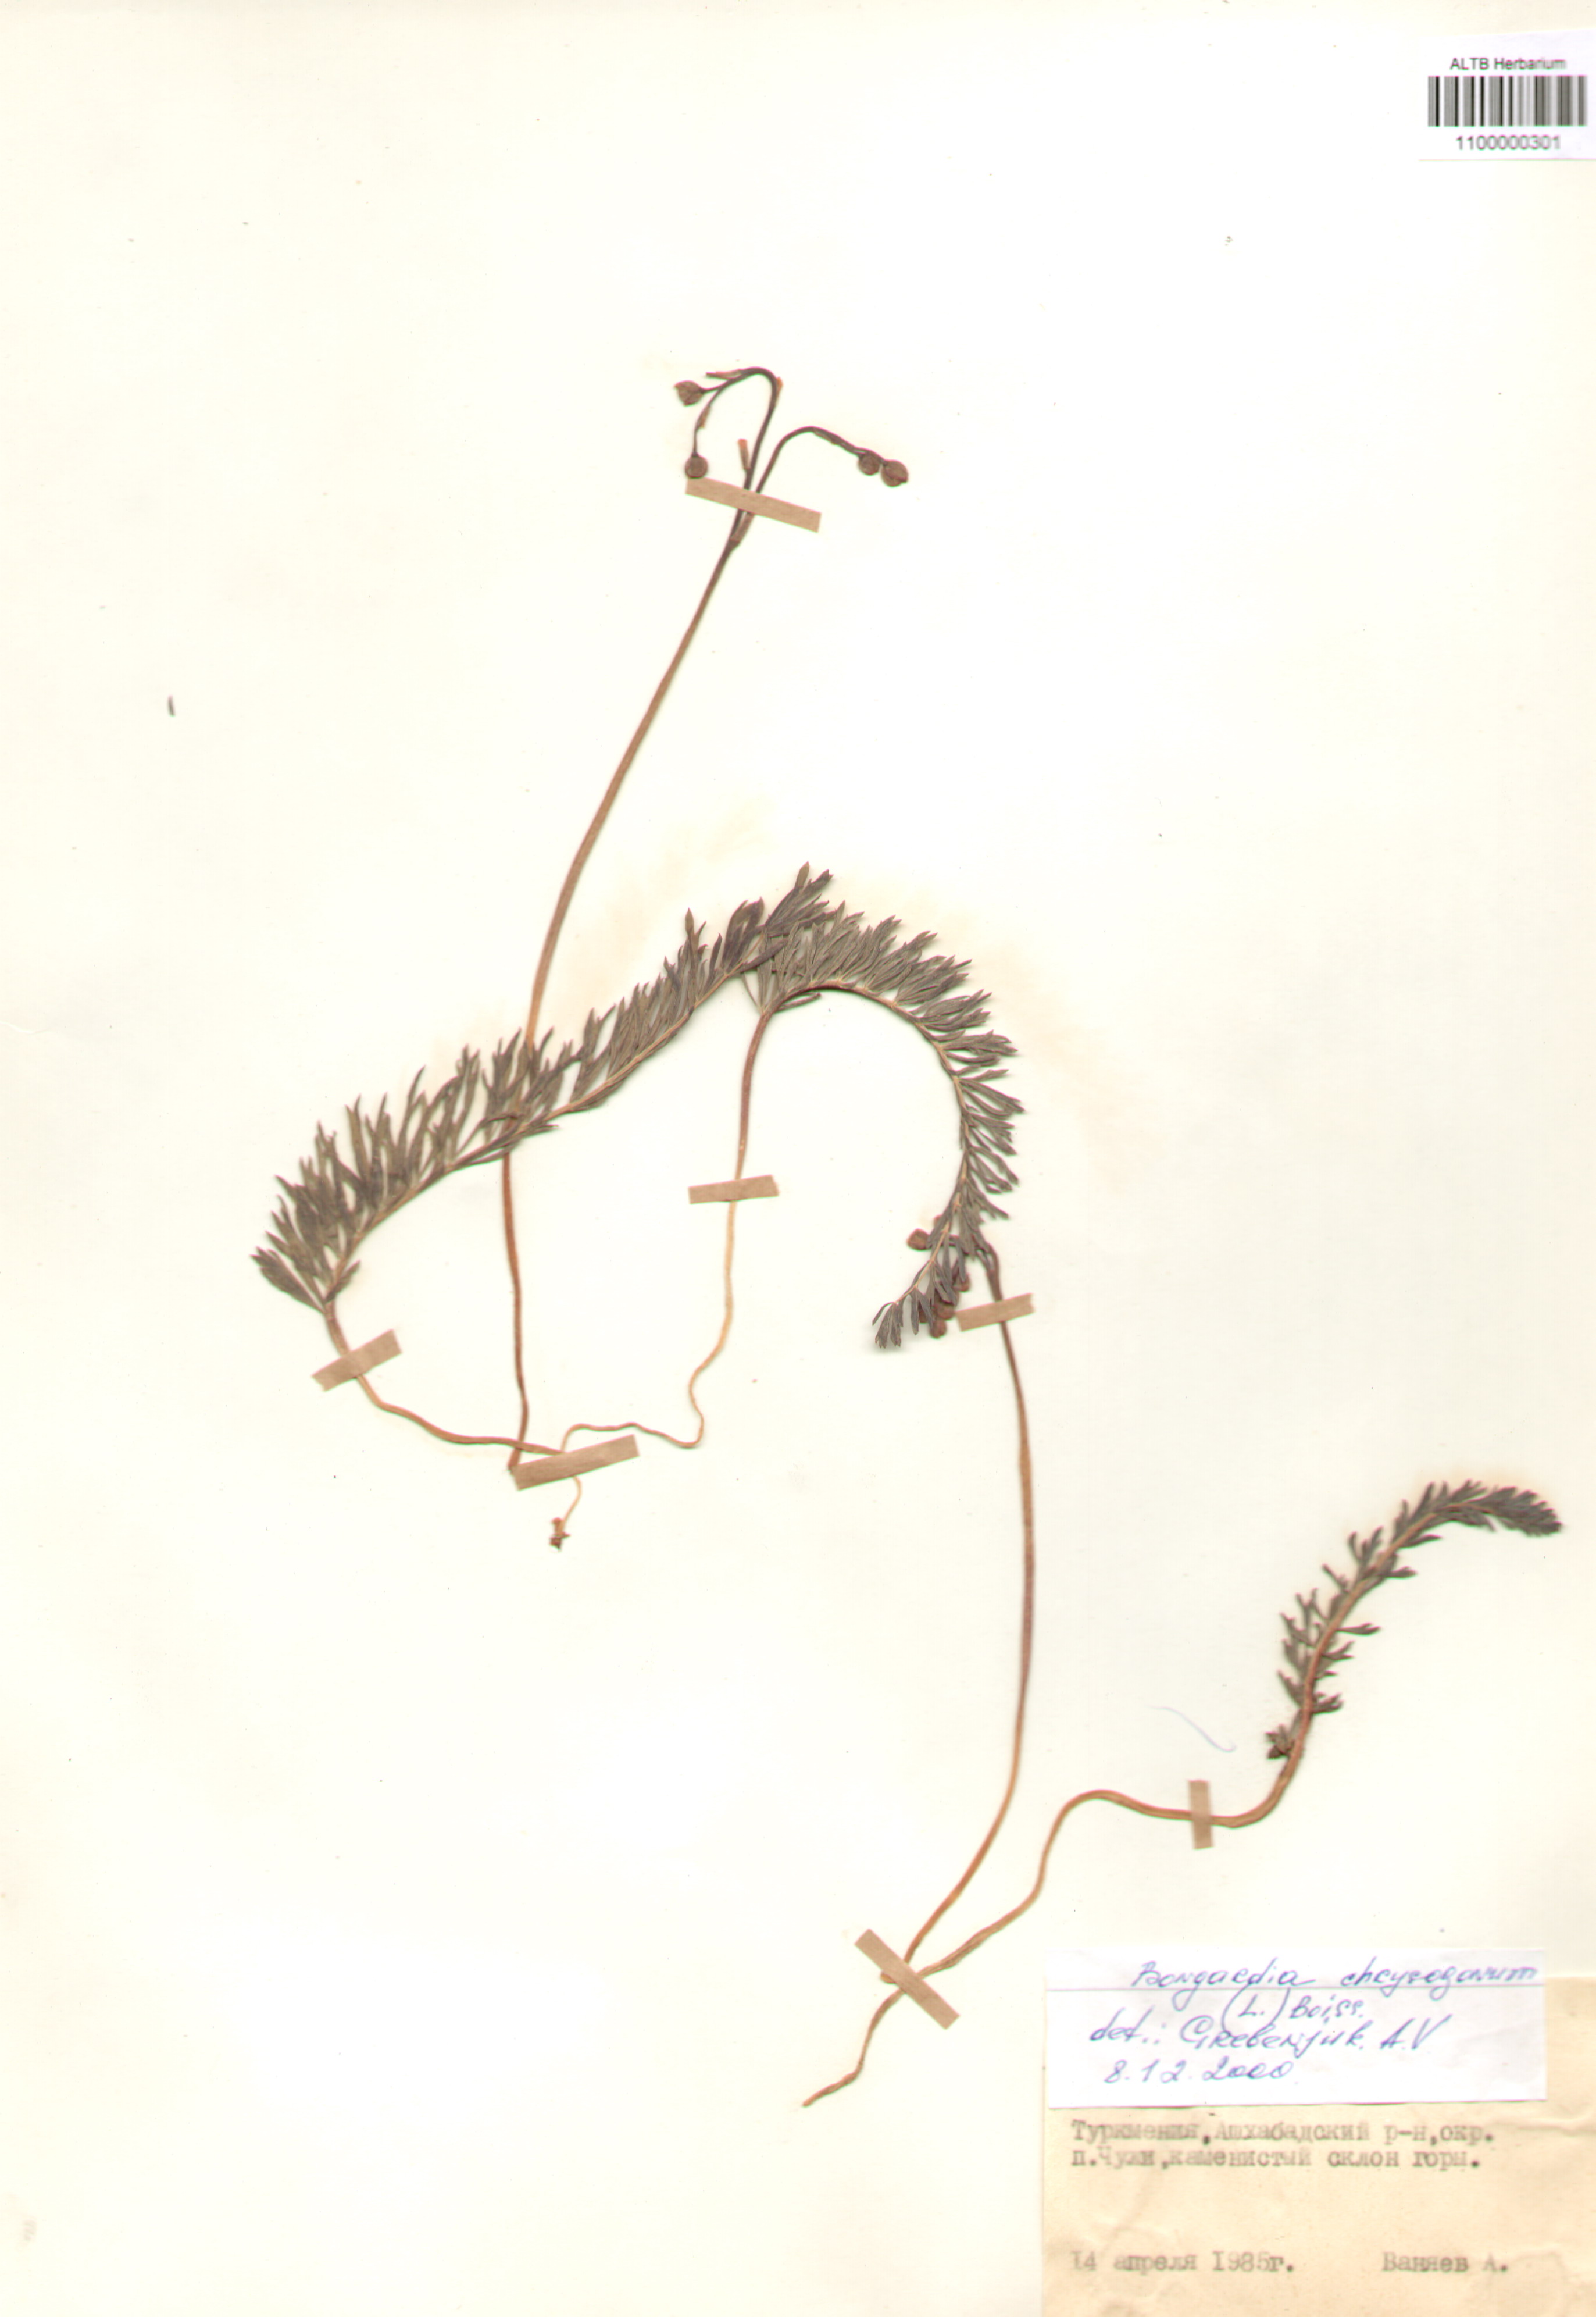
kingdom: Plantae
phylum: Tracheophyta
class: Magnoliopsida
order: Ranunculales
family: Berberidaceae
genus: Bongardia
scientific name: Bongardia chrysogonum
